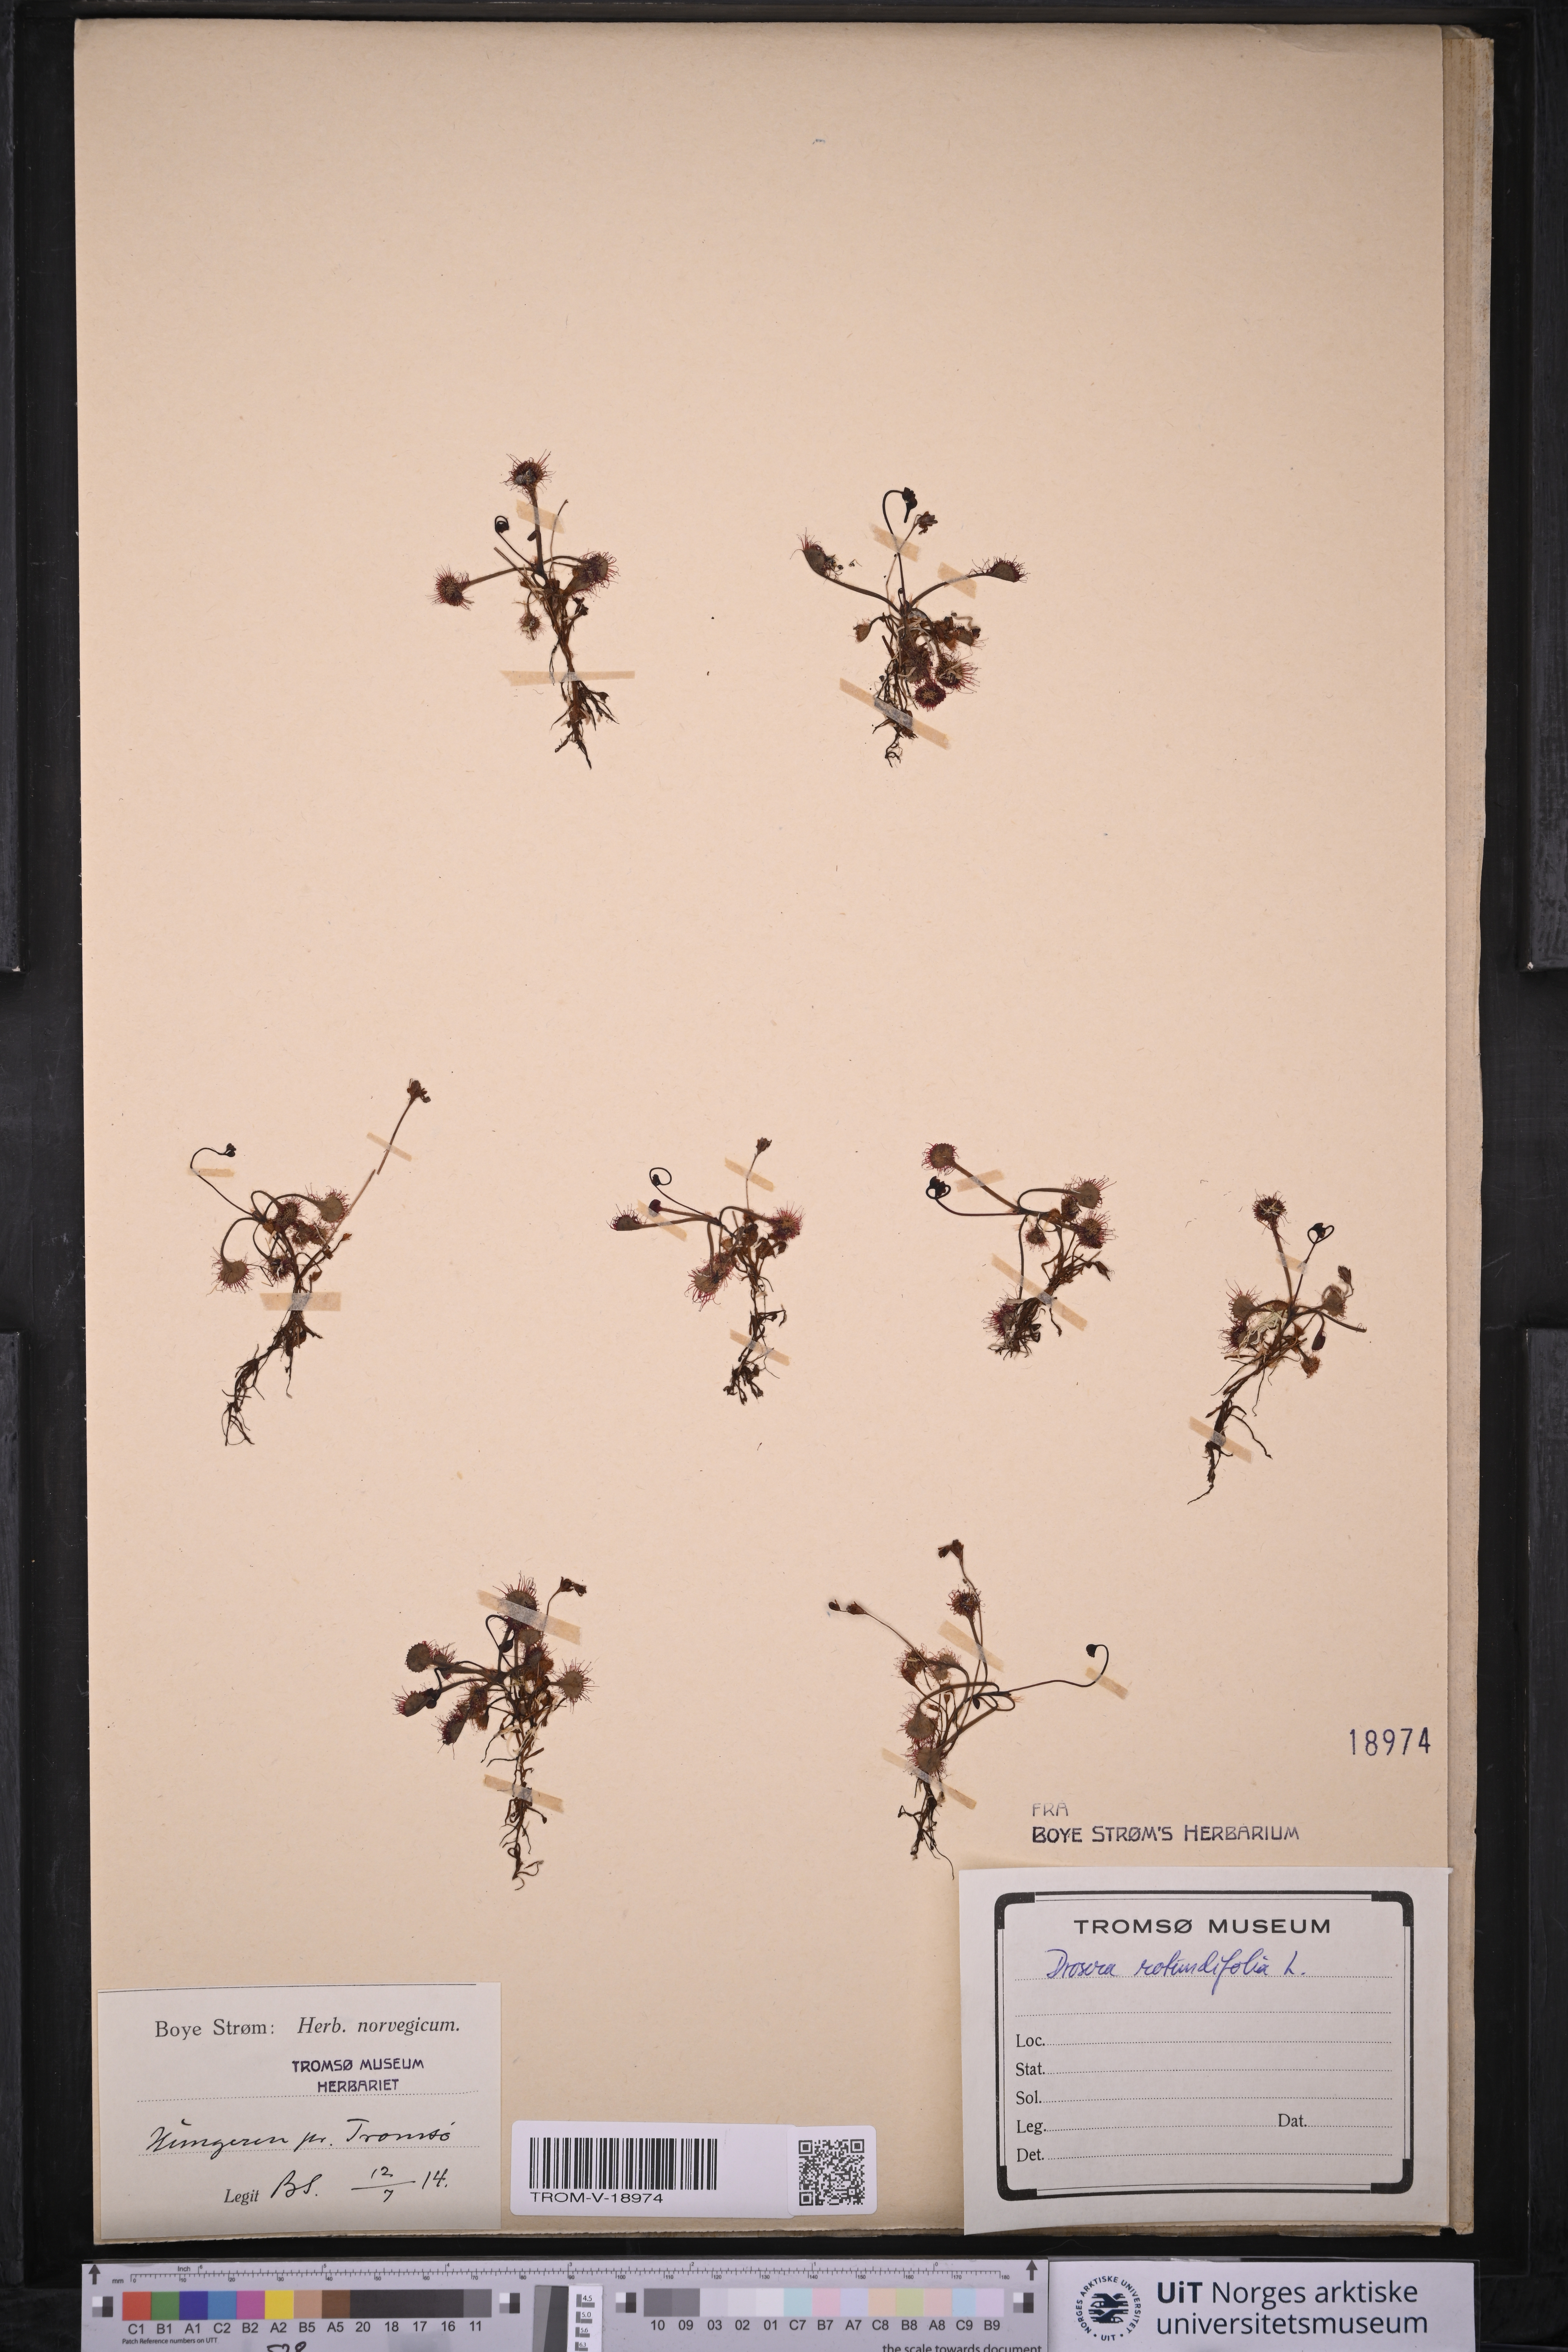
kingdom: Plantae
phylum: Tracheophyta
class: Magnoliopsida
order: Caryophyllales
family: Droseraceae
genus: Drosera
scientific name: Drosera rotundifolia
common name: Round-leaved sundew
